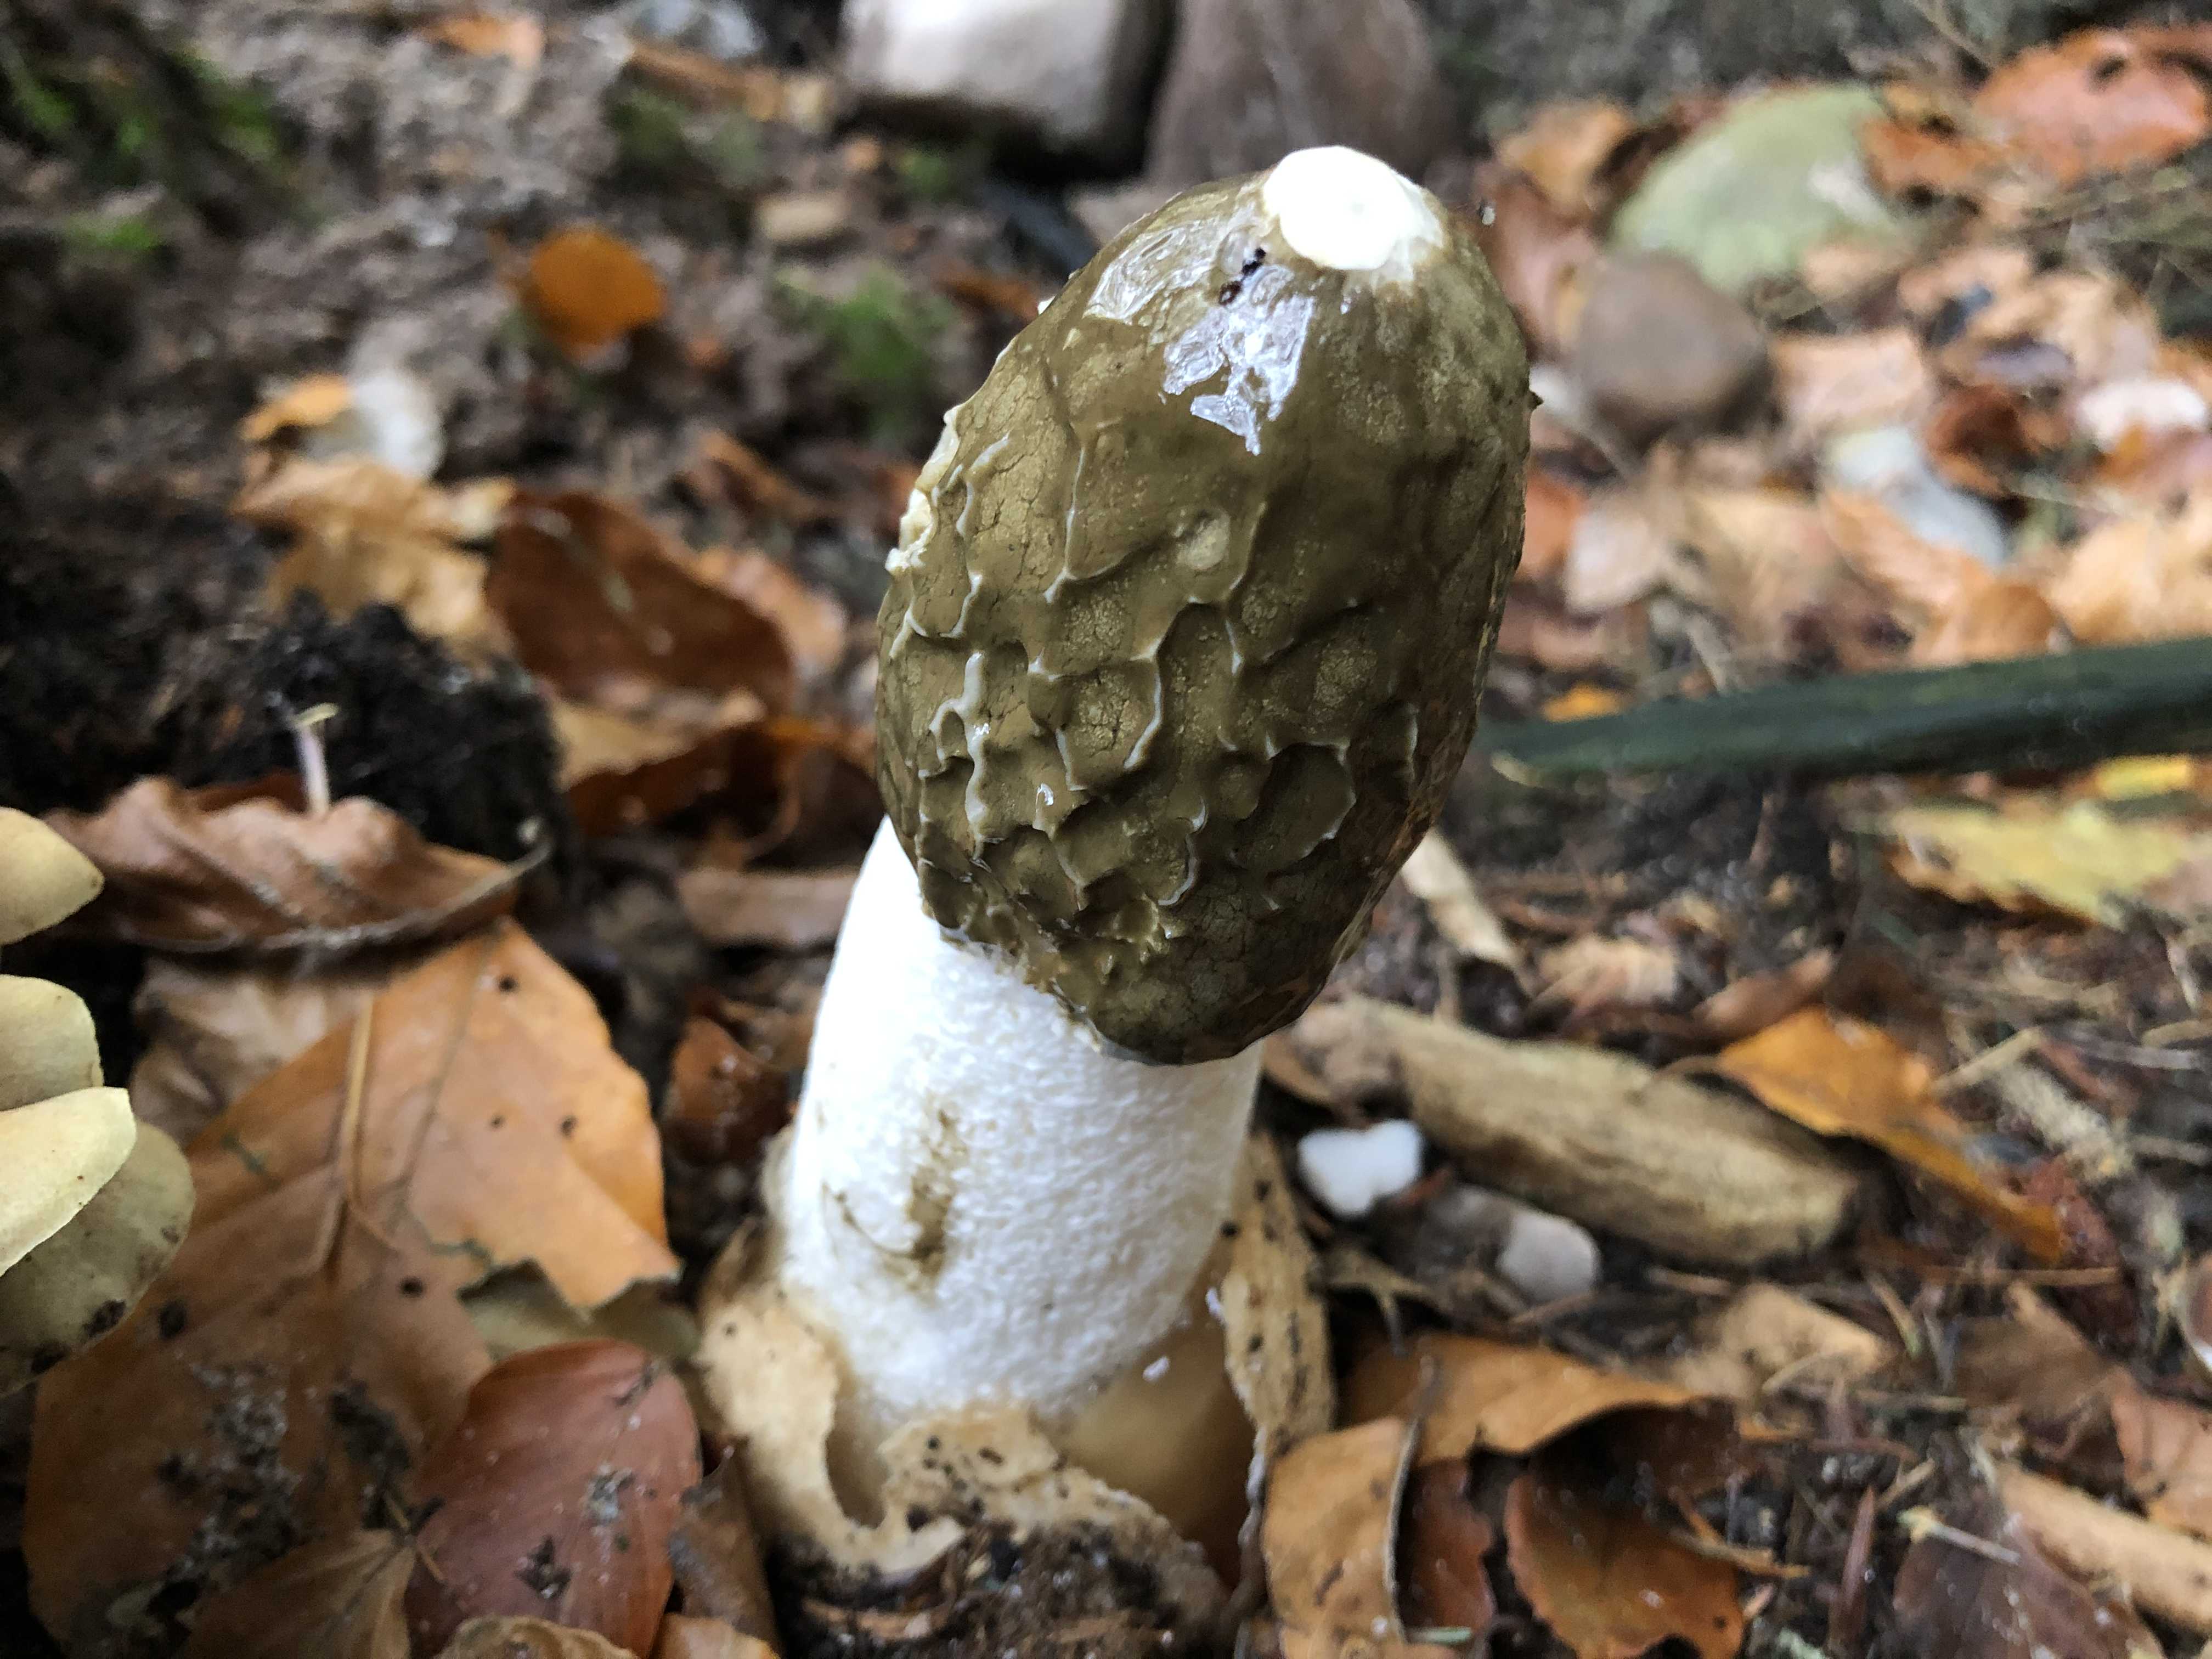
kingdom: Fungi
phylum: Basidiomycota
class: Agaricomycetes
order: Phallales
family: Phallaceae
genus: Phallus
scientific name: Phallus impudicus
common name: almindelig stinksvamp
